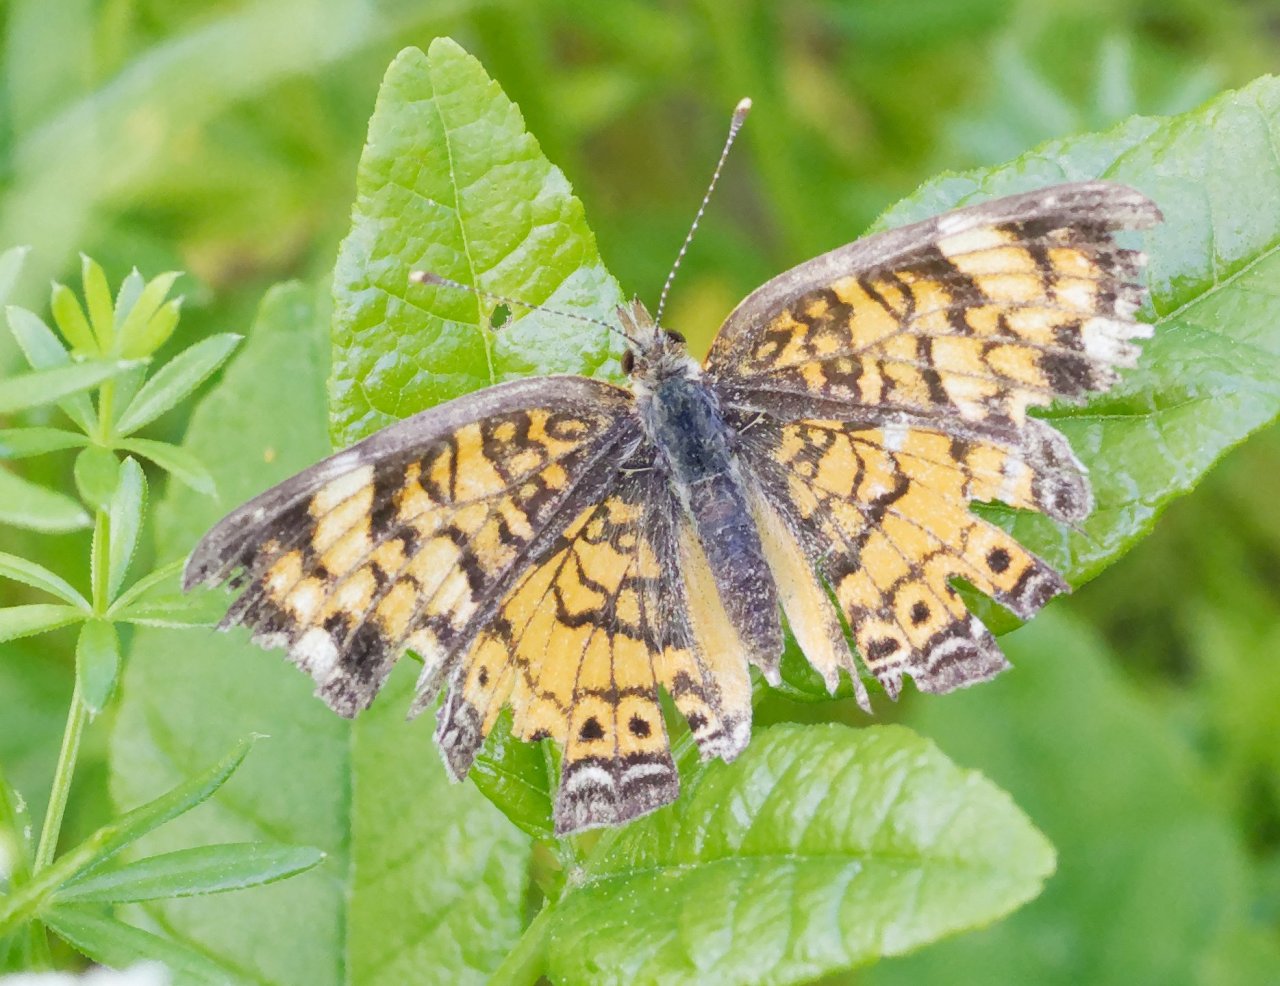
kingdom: Animalia
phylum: Arthropoda
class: Insecta
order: Lepidoptera
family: Nymphalidae
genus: Phyciodes
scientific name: Phyciodes
